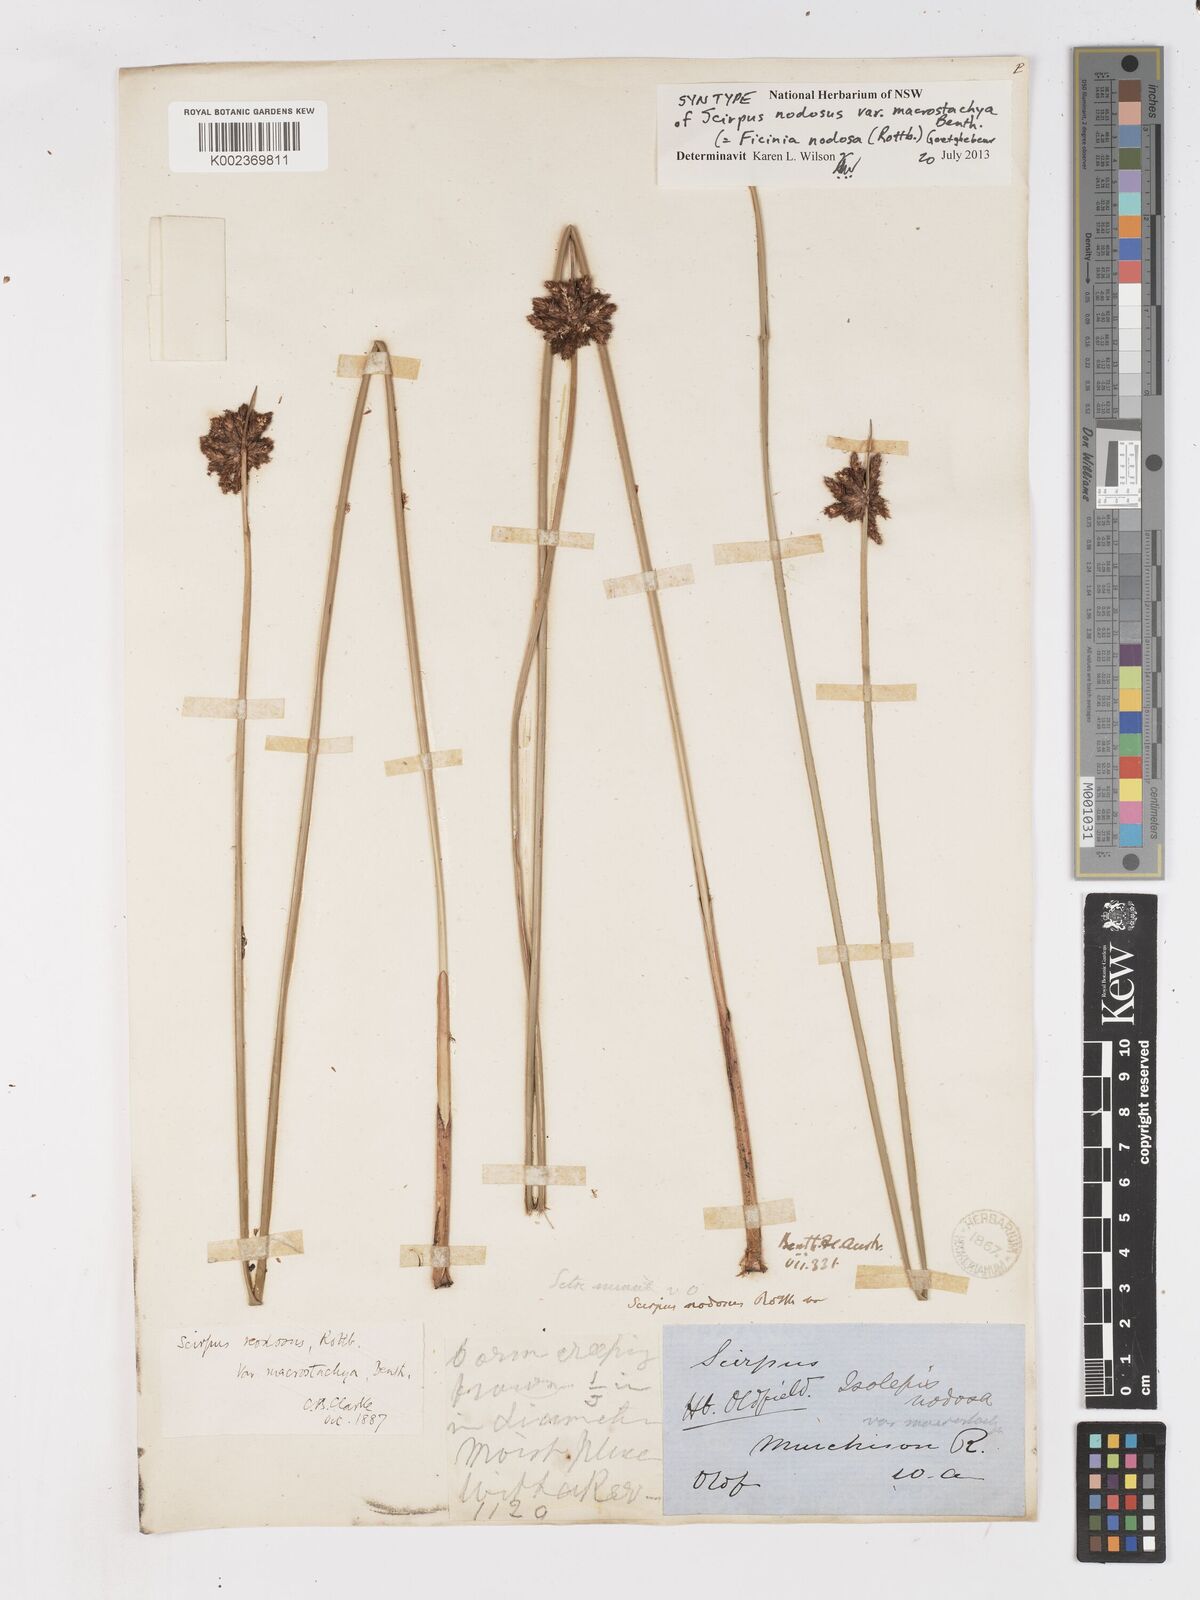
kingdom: Plantae
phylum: Tracheophyta
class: Liliopsida
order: Poales
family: Cyperaceae
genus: Ficinia
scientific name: Ficinia nodosa
